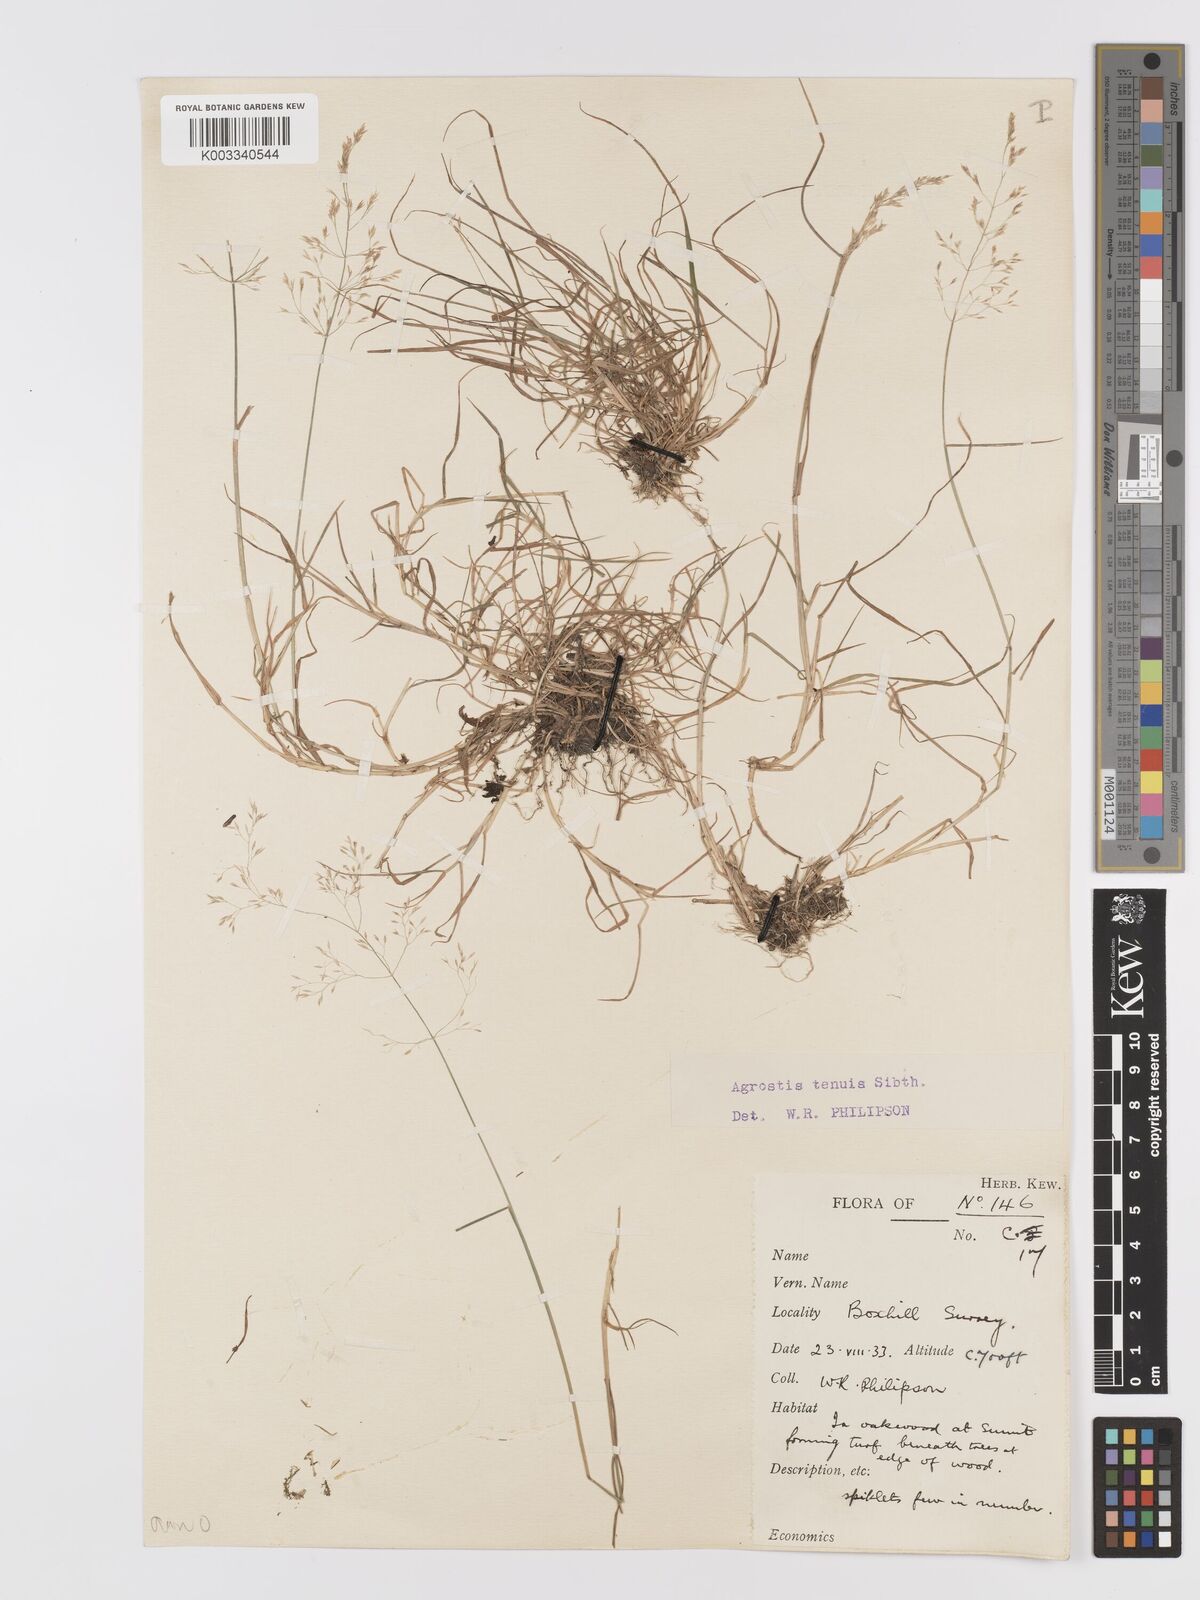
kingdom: Plantae
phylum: Tracheophyta
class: Liliopsida
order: Poales
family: Poaceae
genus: Agrostis
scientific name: Agrostis capillaris
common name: Colonial bentgrass
